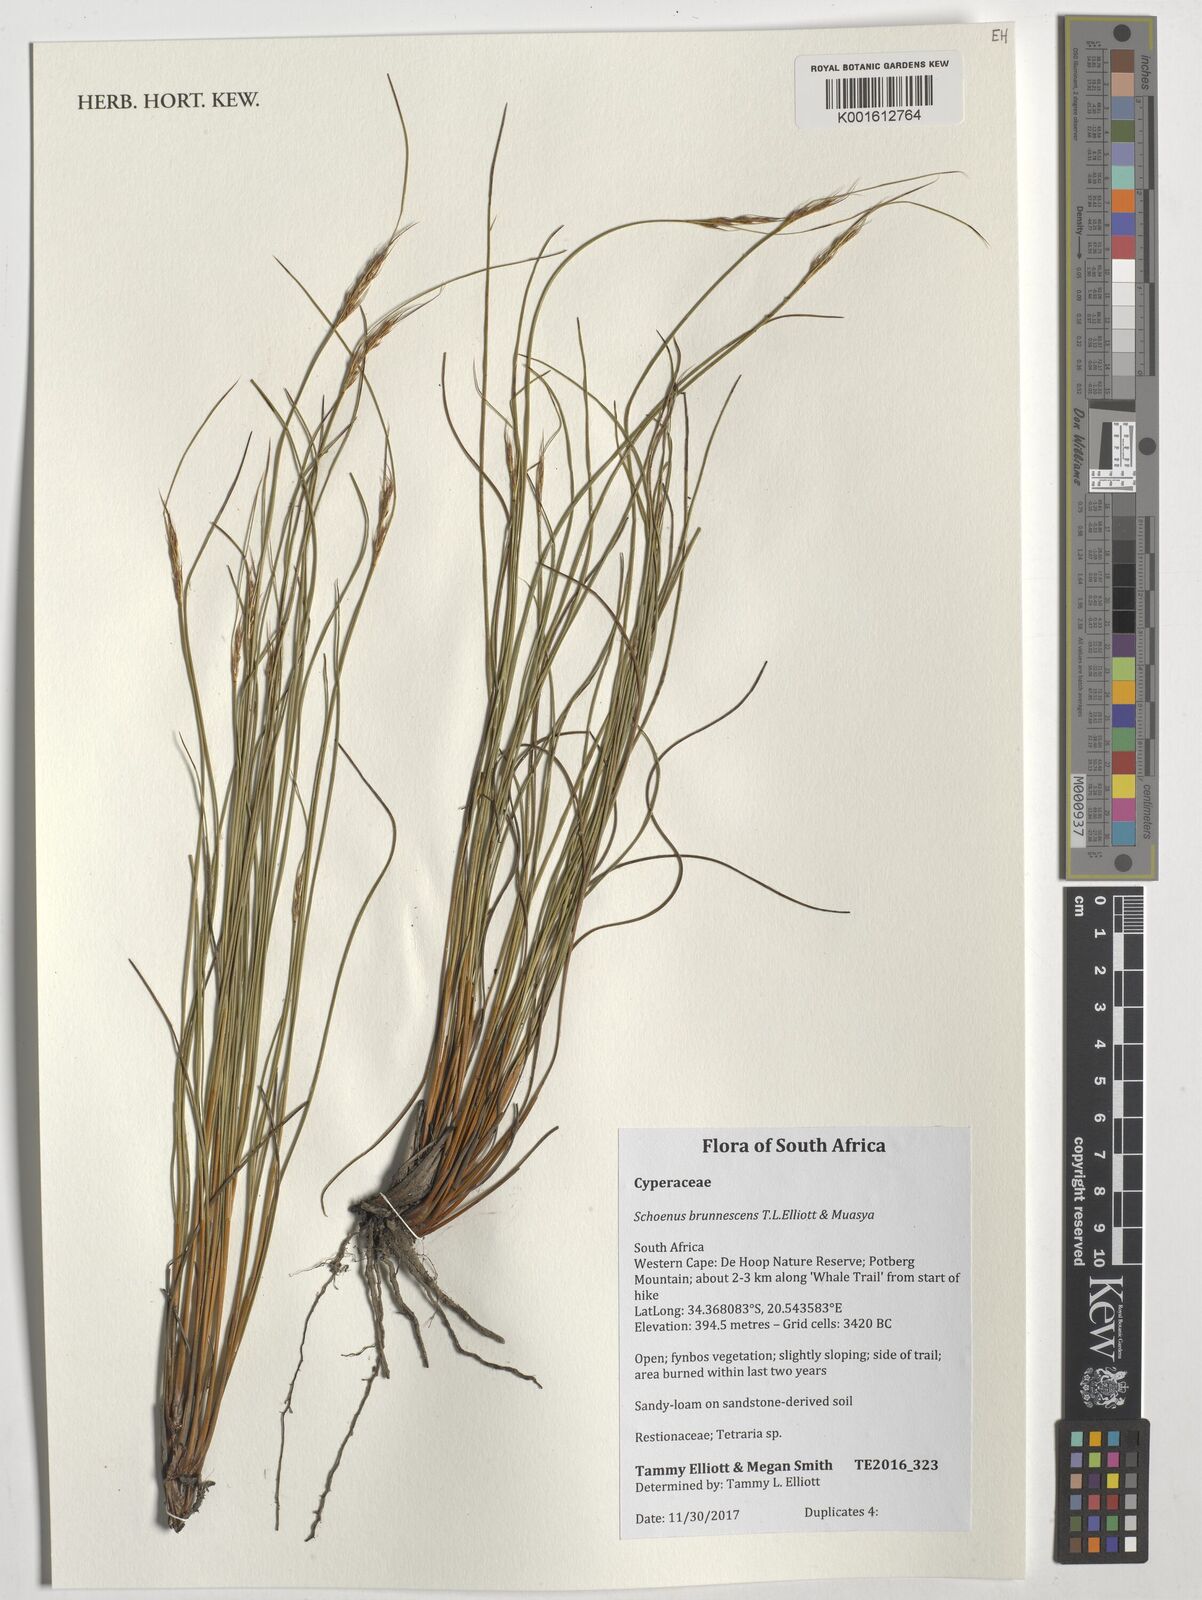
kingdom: Plantae
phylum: Tracheophyta
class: Liliopsida
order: Poales
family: Cyperaceae
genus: Blysmus
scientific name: Blysmus rufus
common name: Saltmarsh flat-sedge
